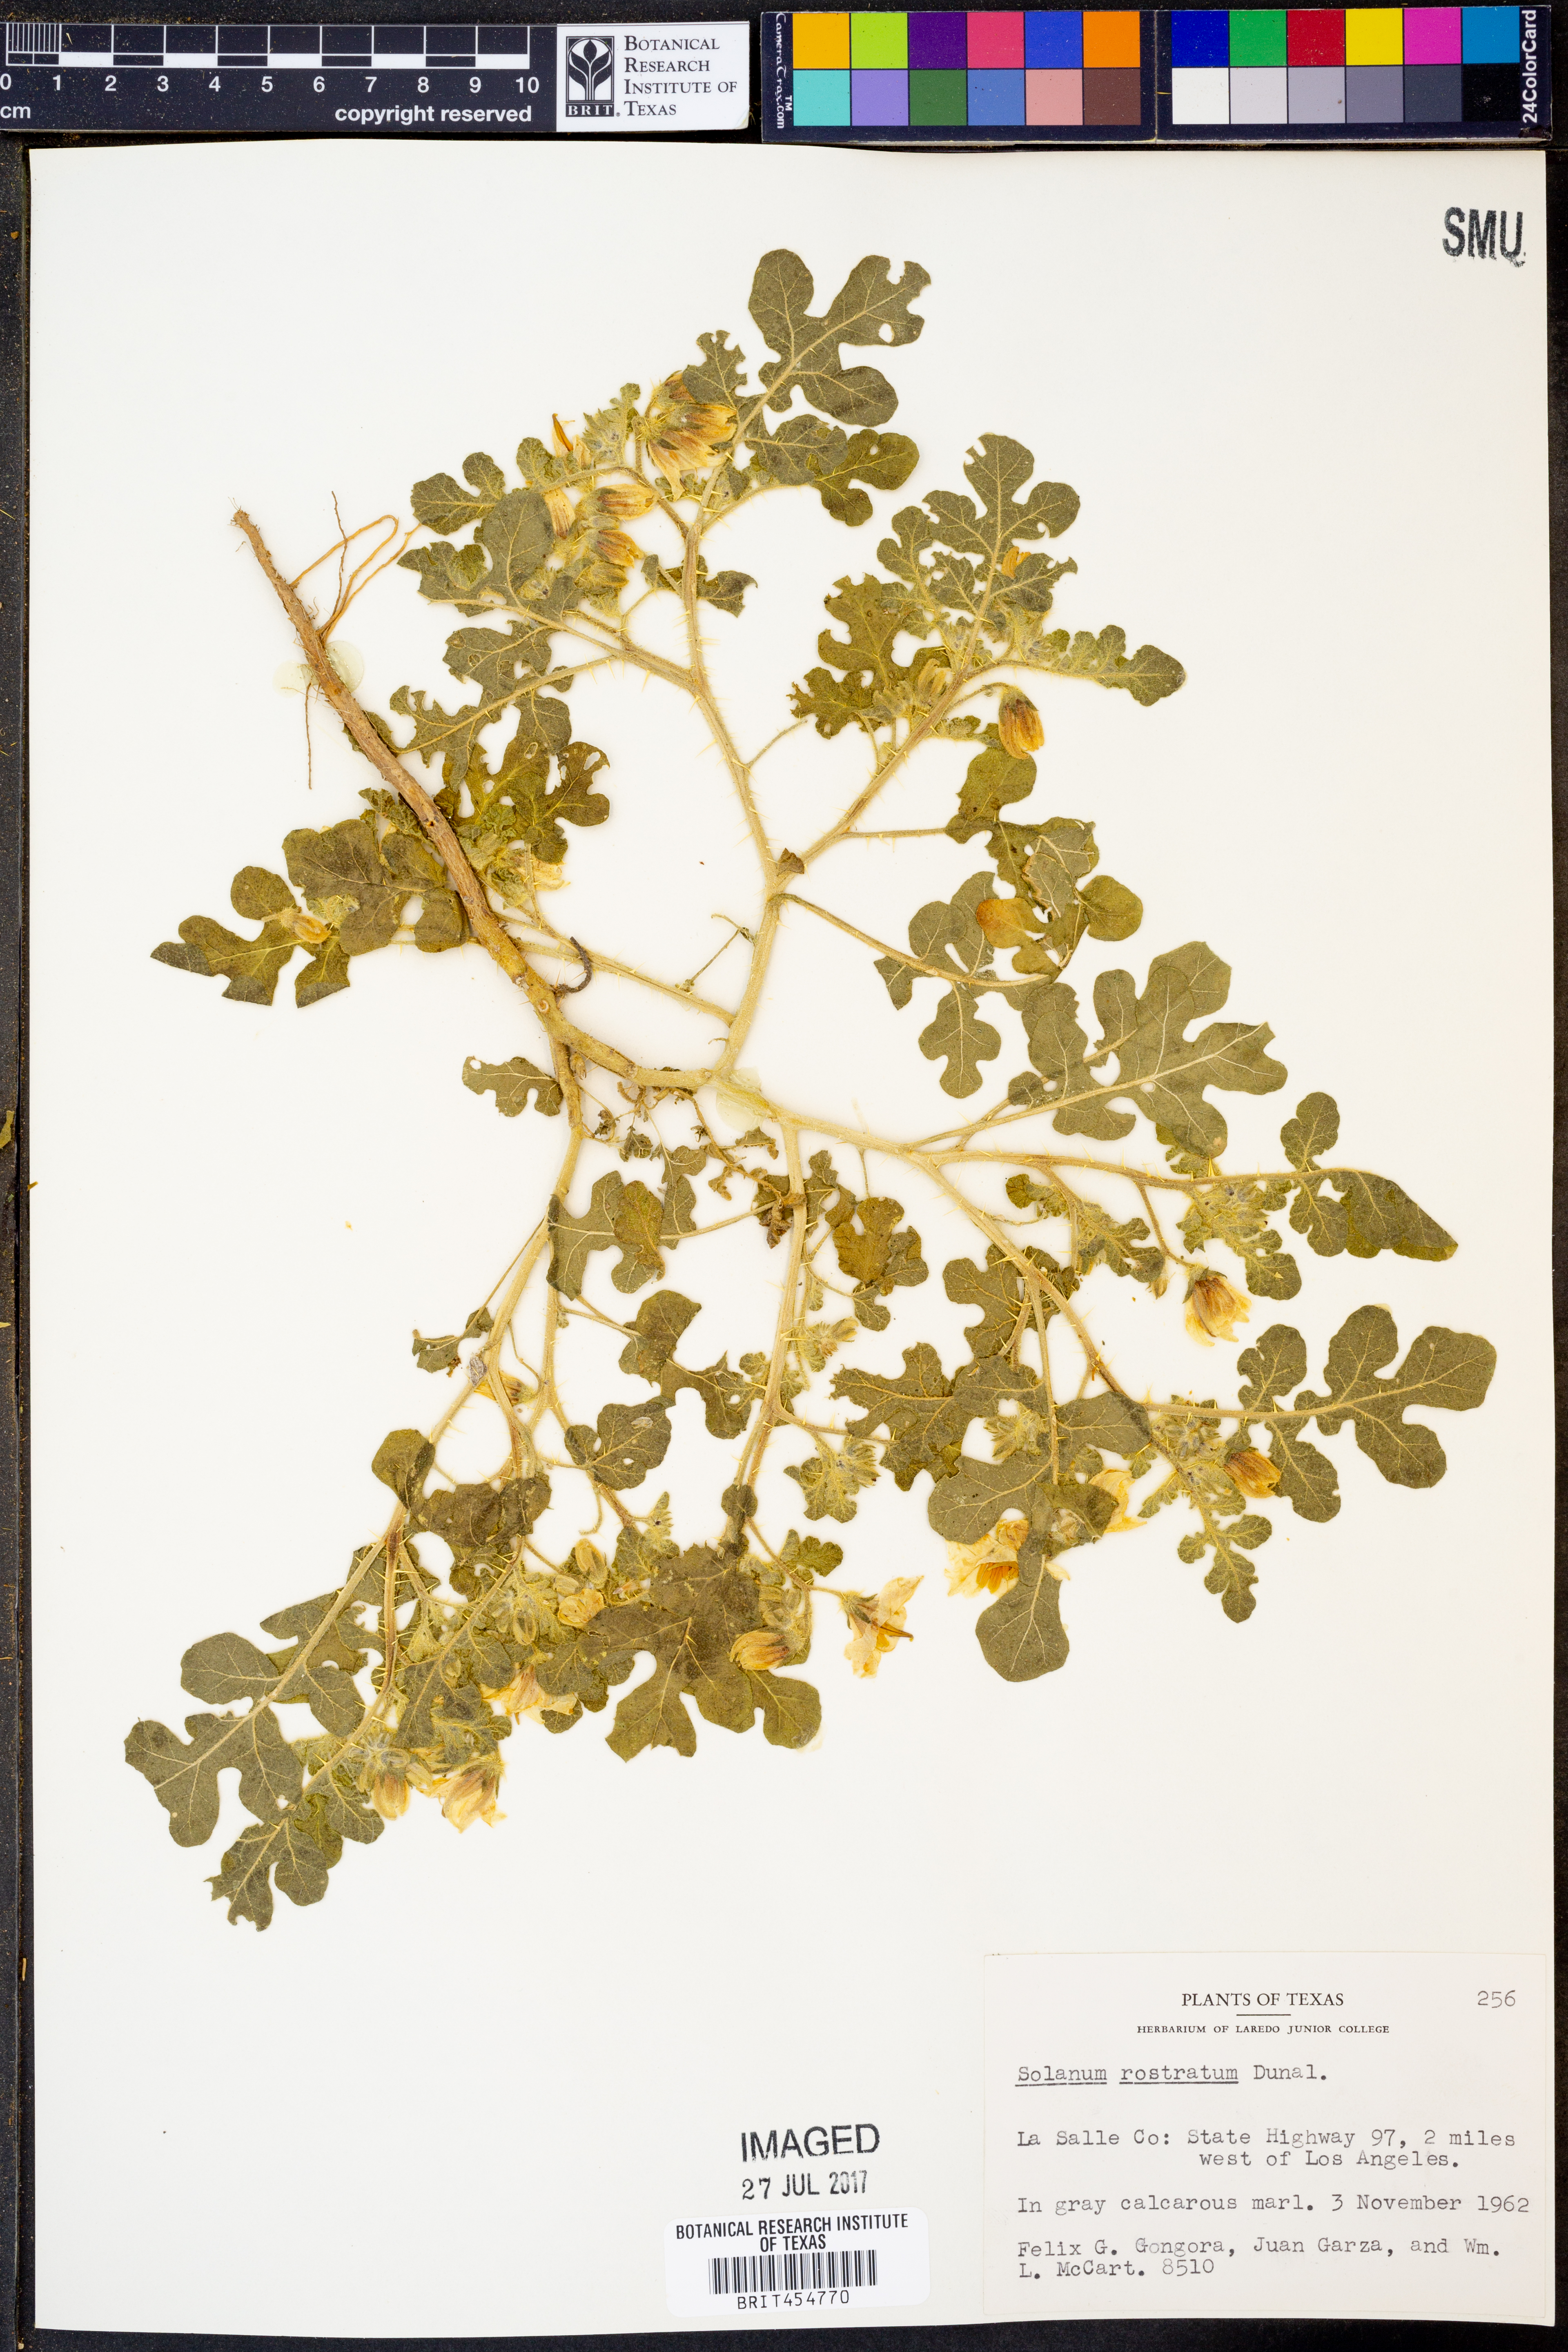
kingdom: Plantae
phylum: Tracheophyta
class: Magnoliopsida
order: Solanales
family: Solanaceae
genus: Solanum
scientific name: Solanum angustifolium
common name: Buffalobur nightshade
